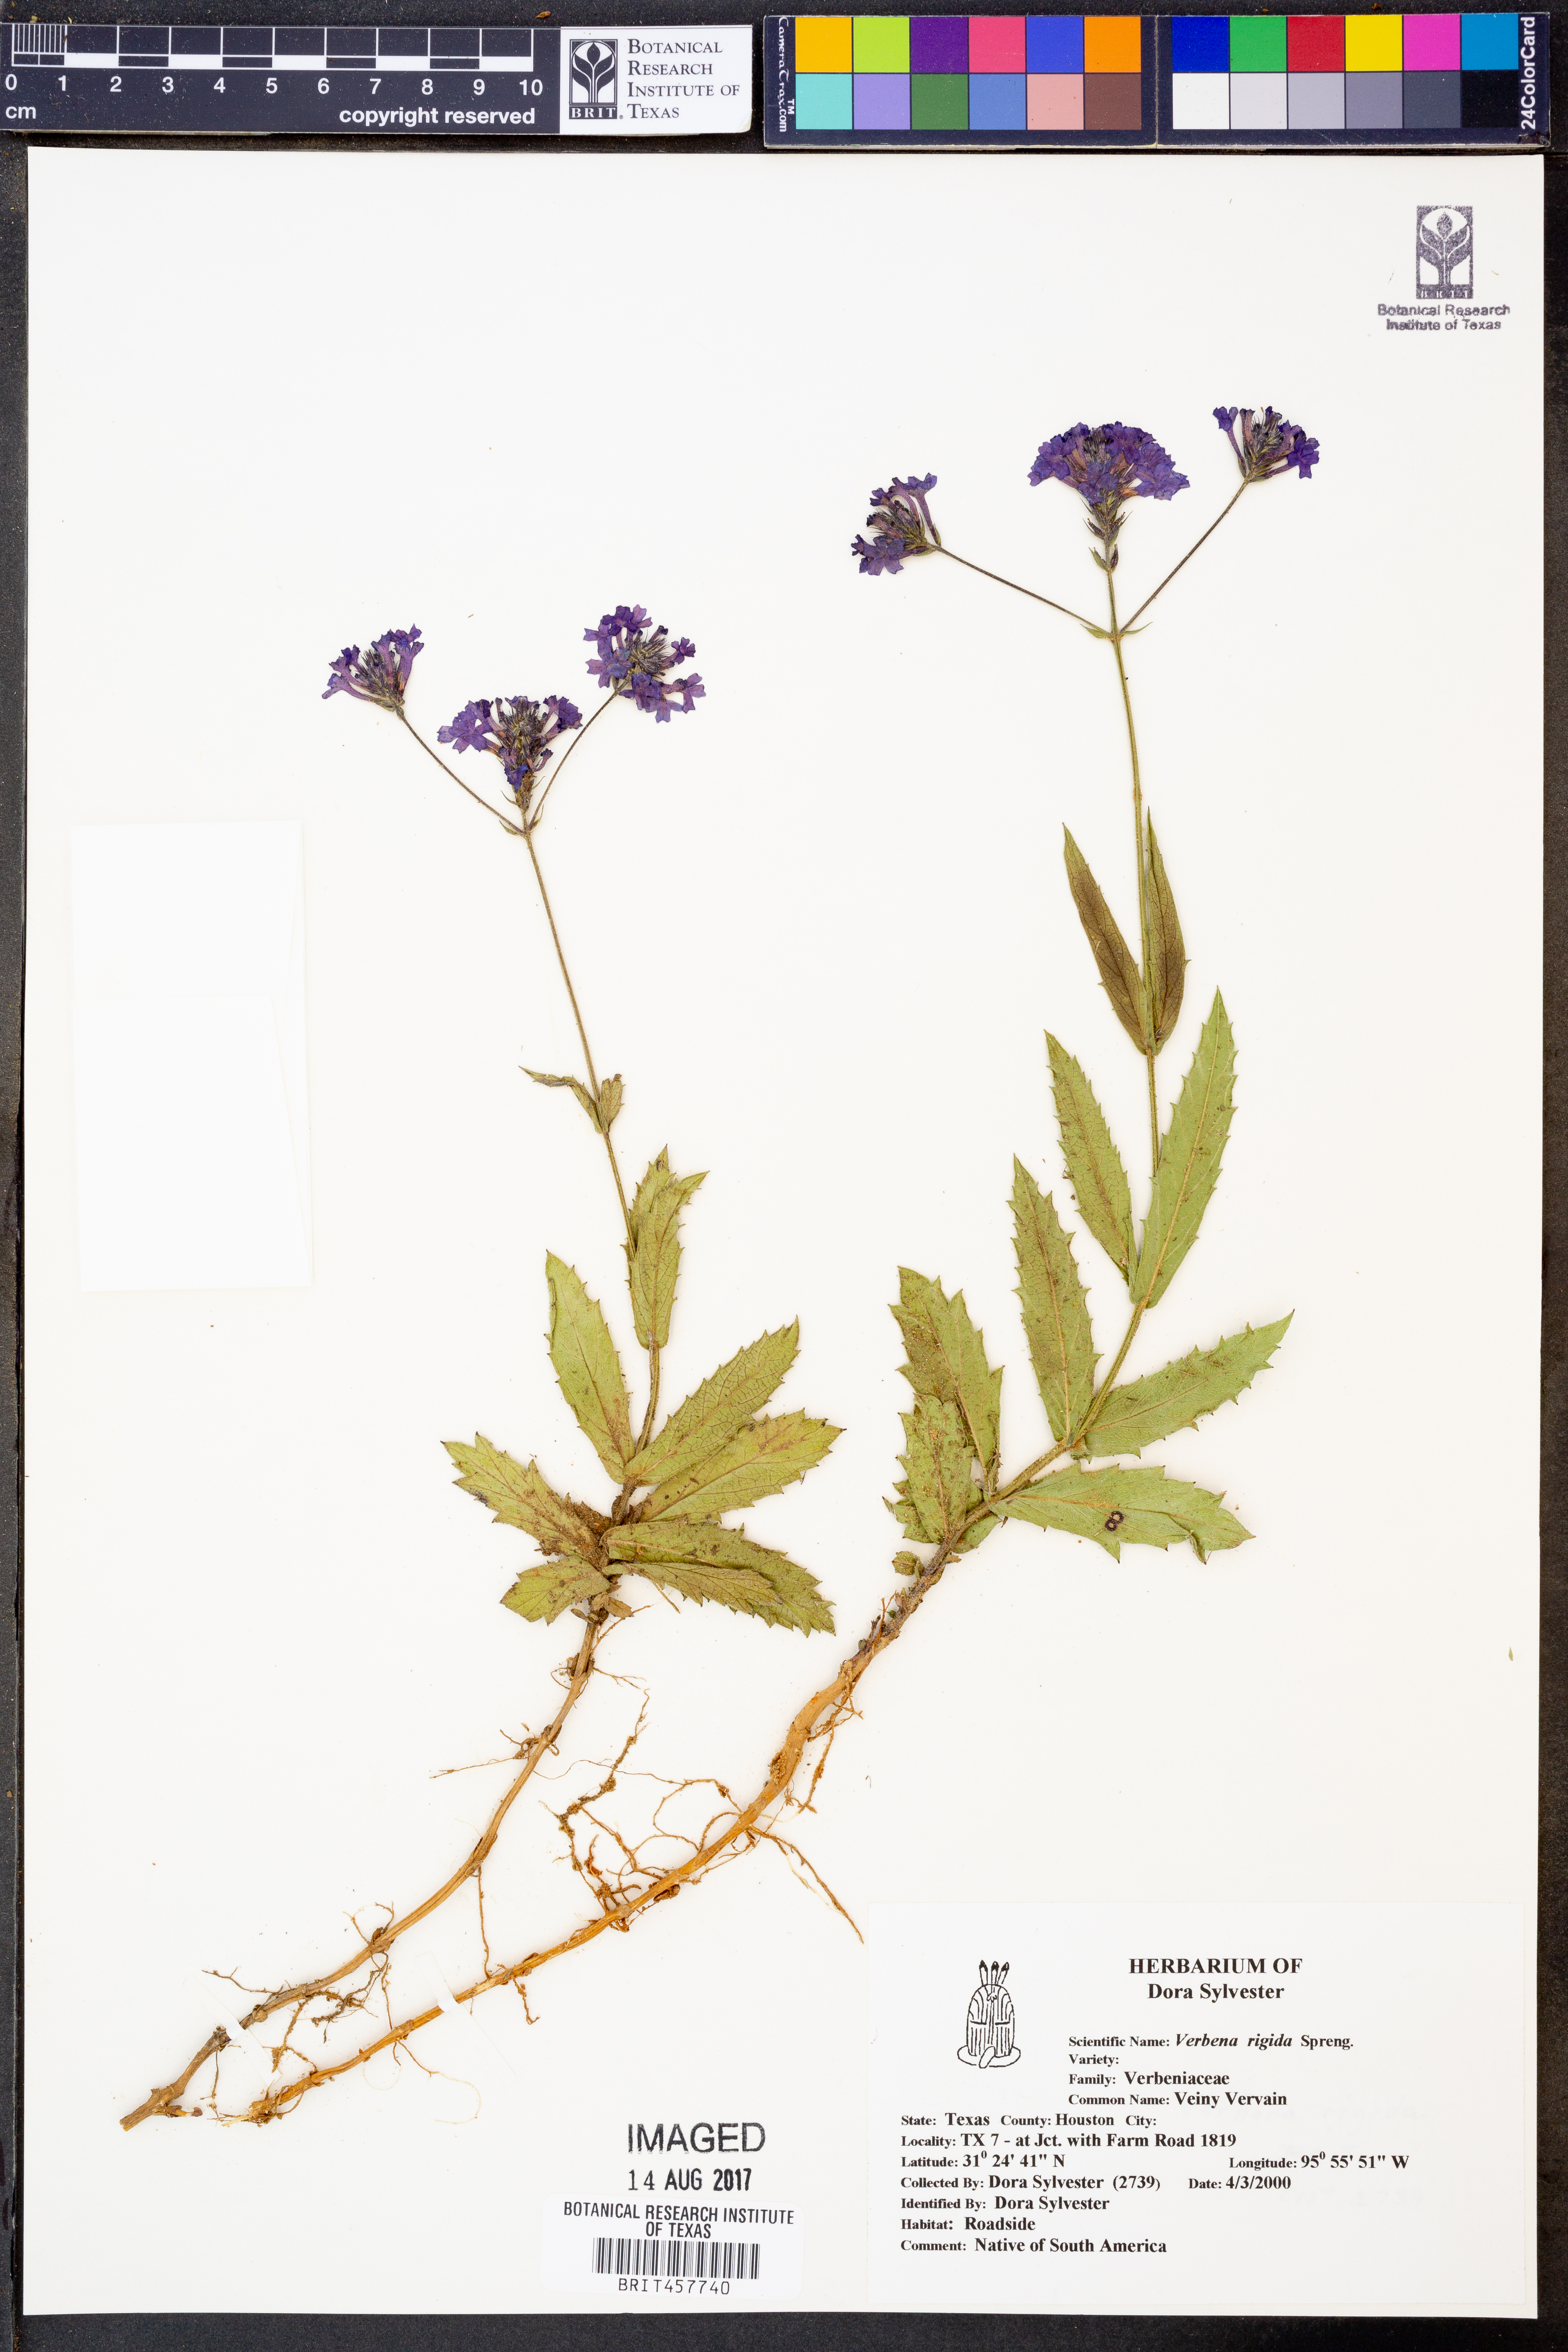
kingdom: Plantae
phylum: Tracheophyta
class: Magnoliopsida
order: Lamiales
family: Verbenaceae
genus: Verbena
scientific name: Verbena rigida
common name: Slender vervain
